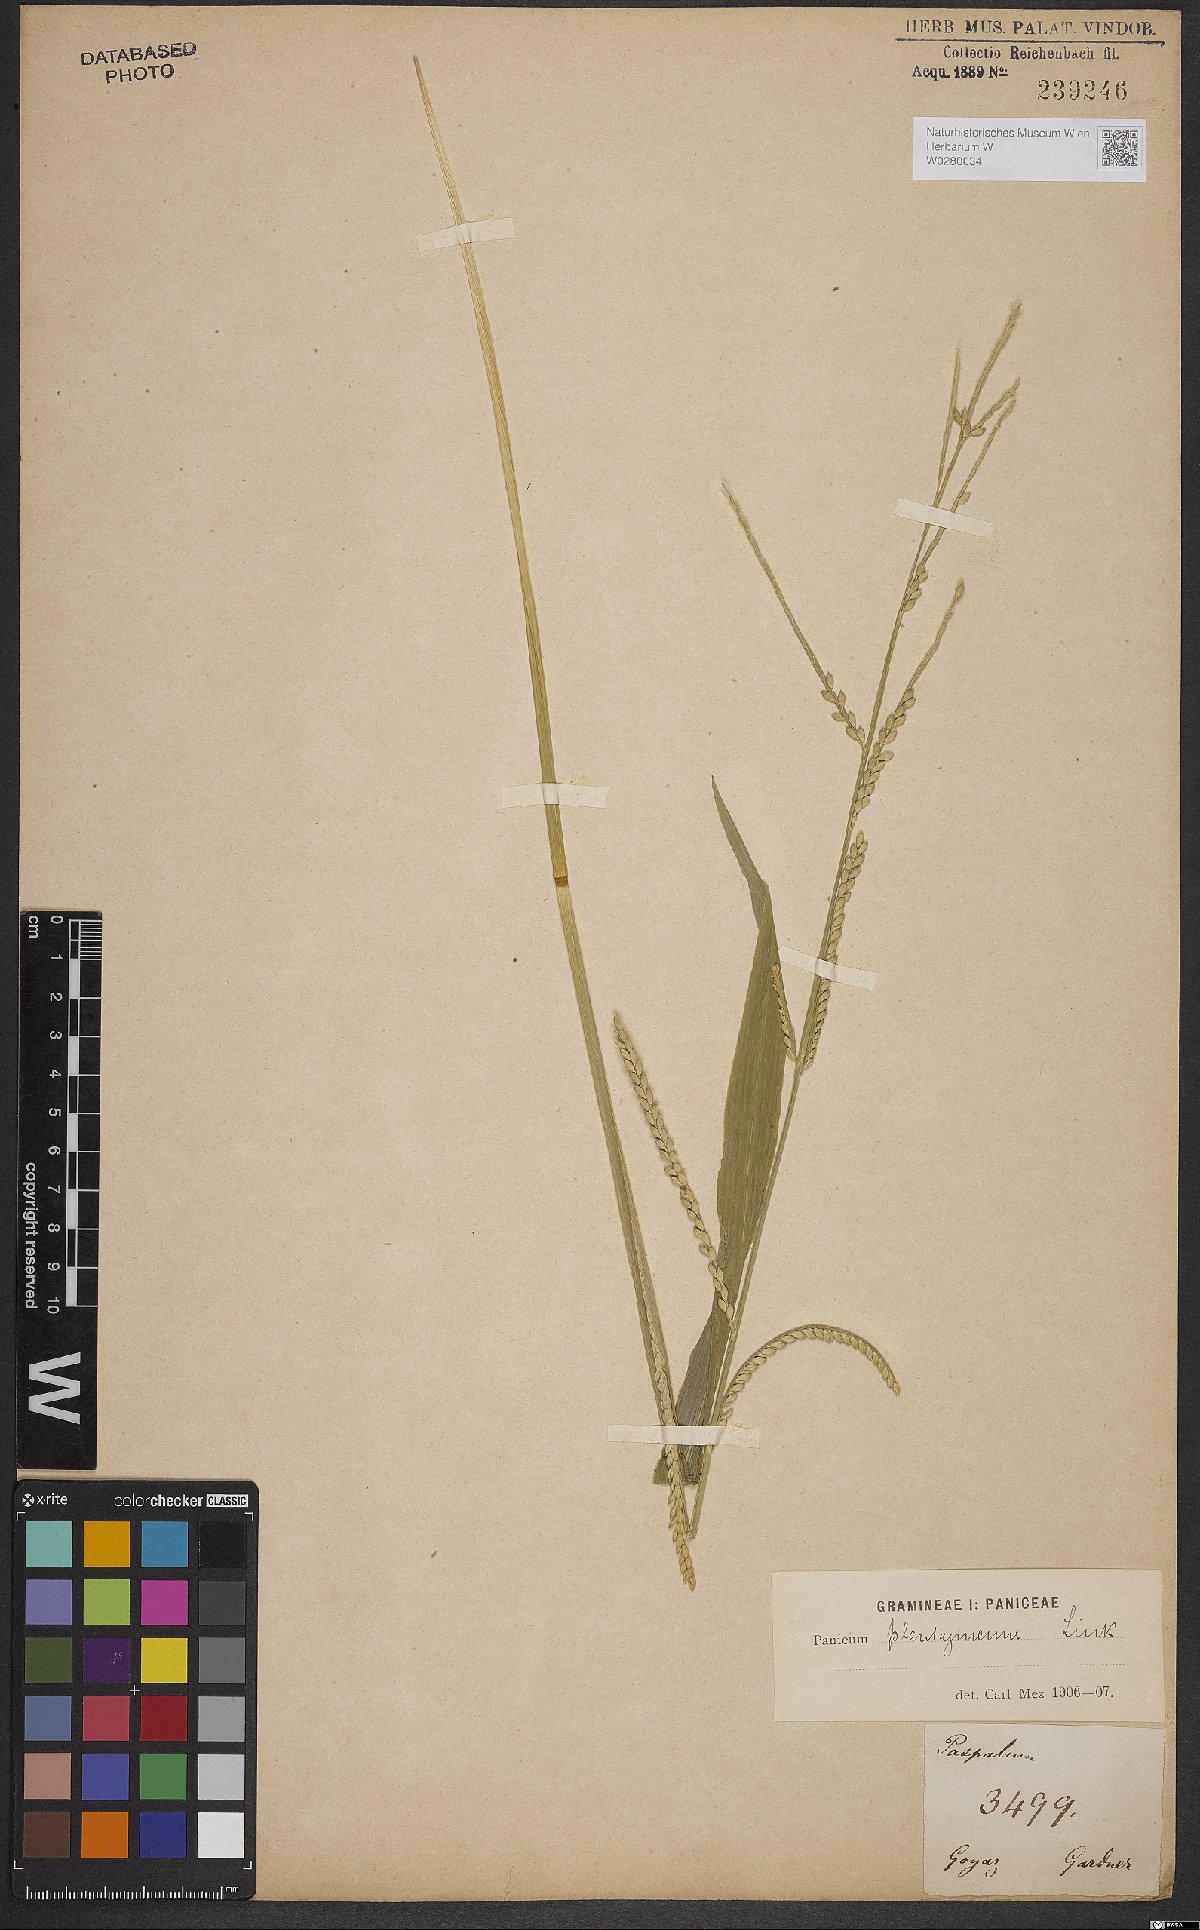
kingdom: Plantae
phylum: Tracheophyta
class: Liliopsida
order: Poales
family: Poaceae
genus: Urochloa
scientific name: Urochloa plantaginea
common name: Plantain signalgrass
